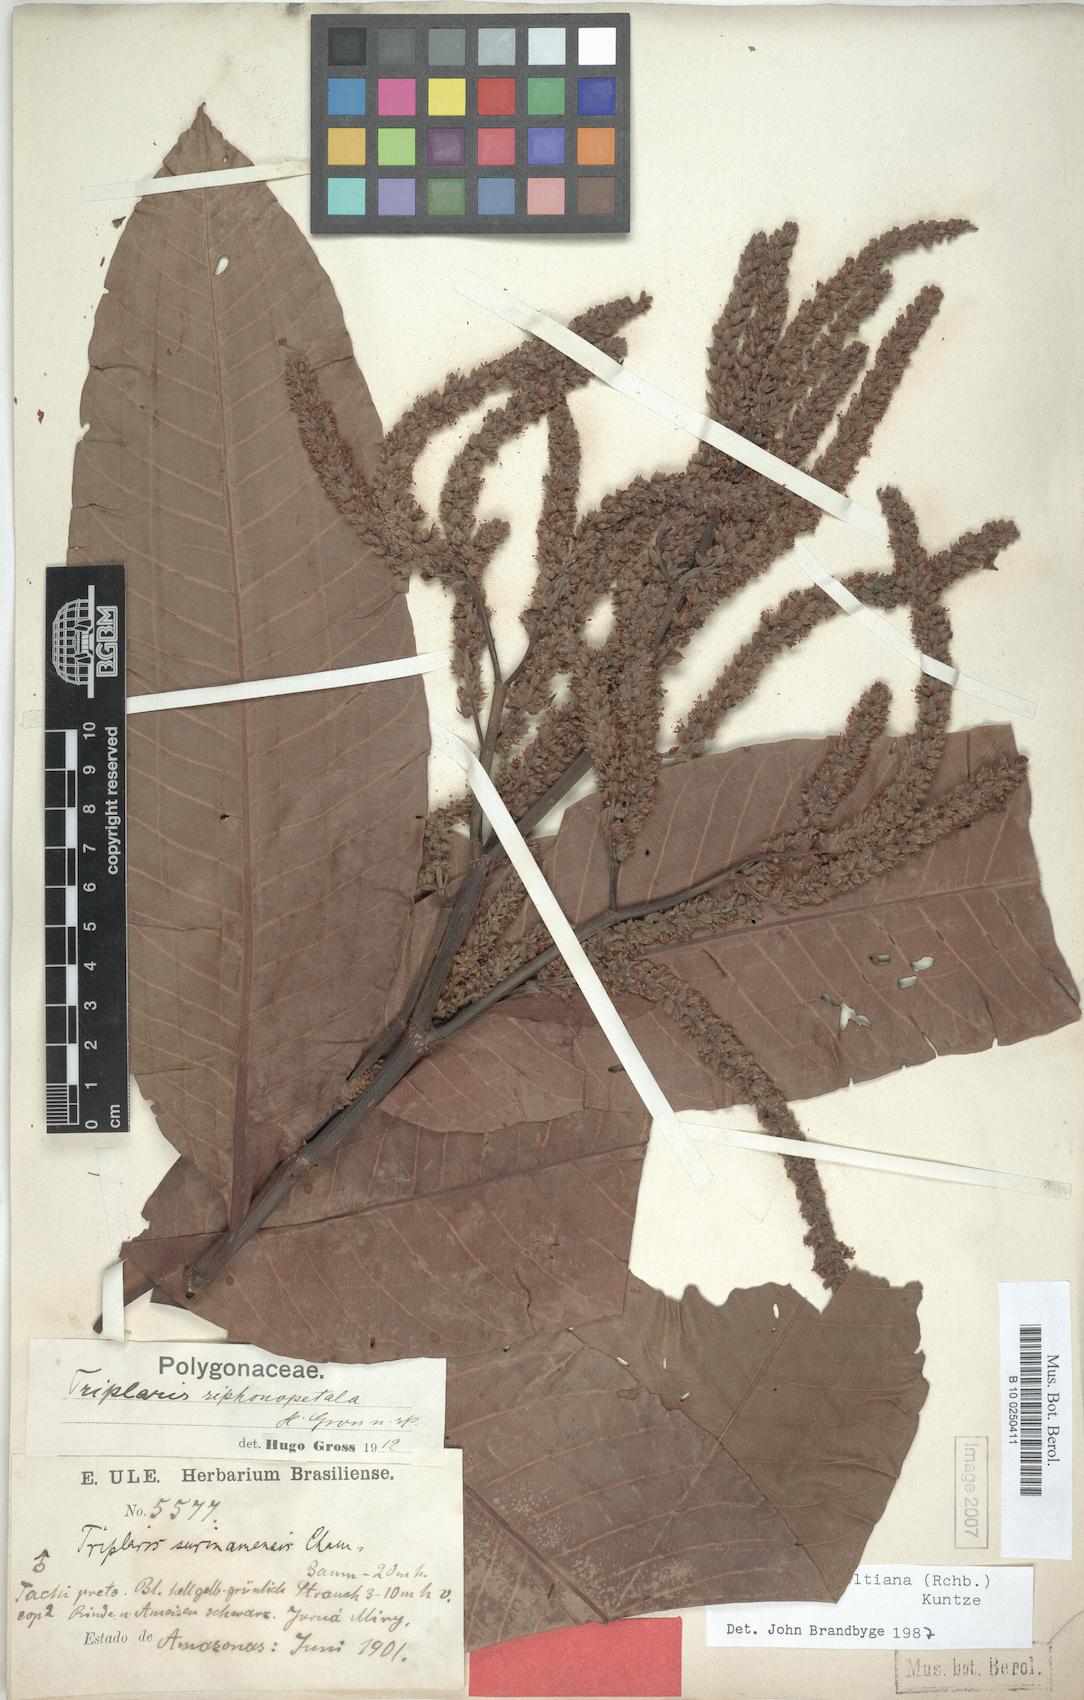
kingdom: Plantae
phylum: Tracheophyta
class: Magnoliopsida
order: Caryophyllales
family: Polygonaceae
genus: Triplaris
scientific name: Triplaris weigeltiana
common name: Long john
